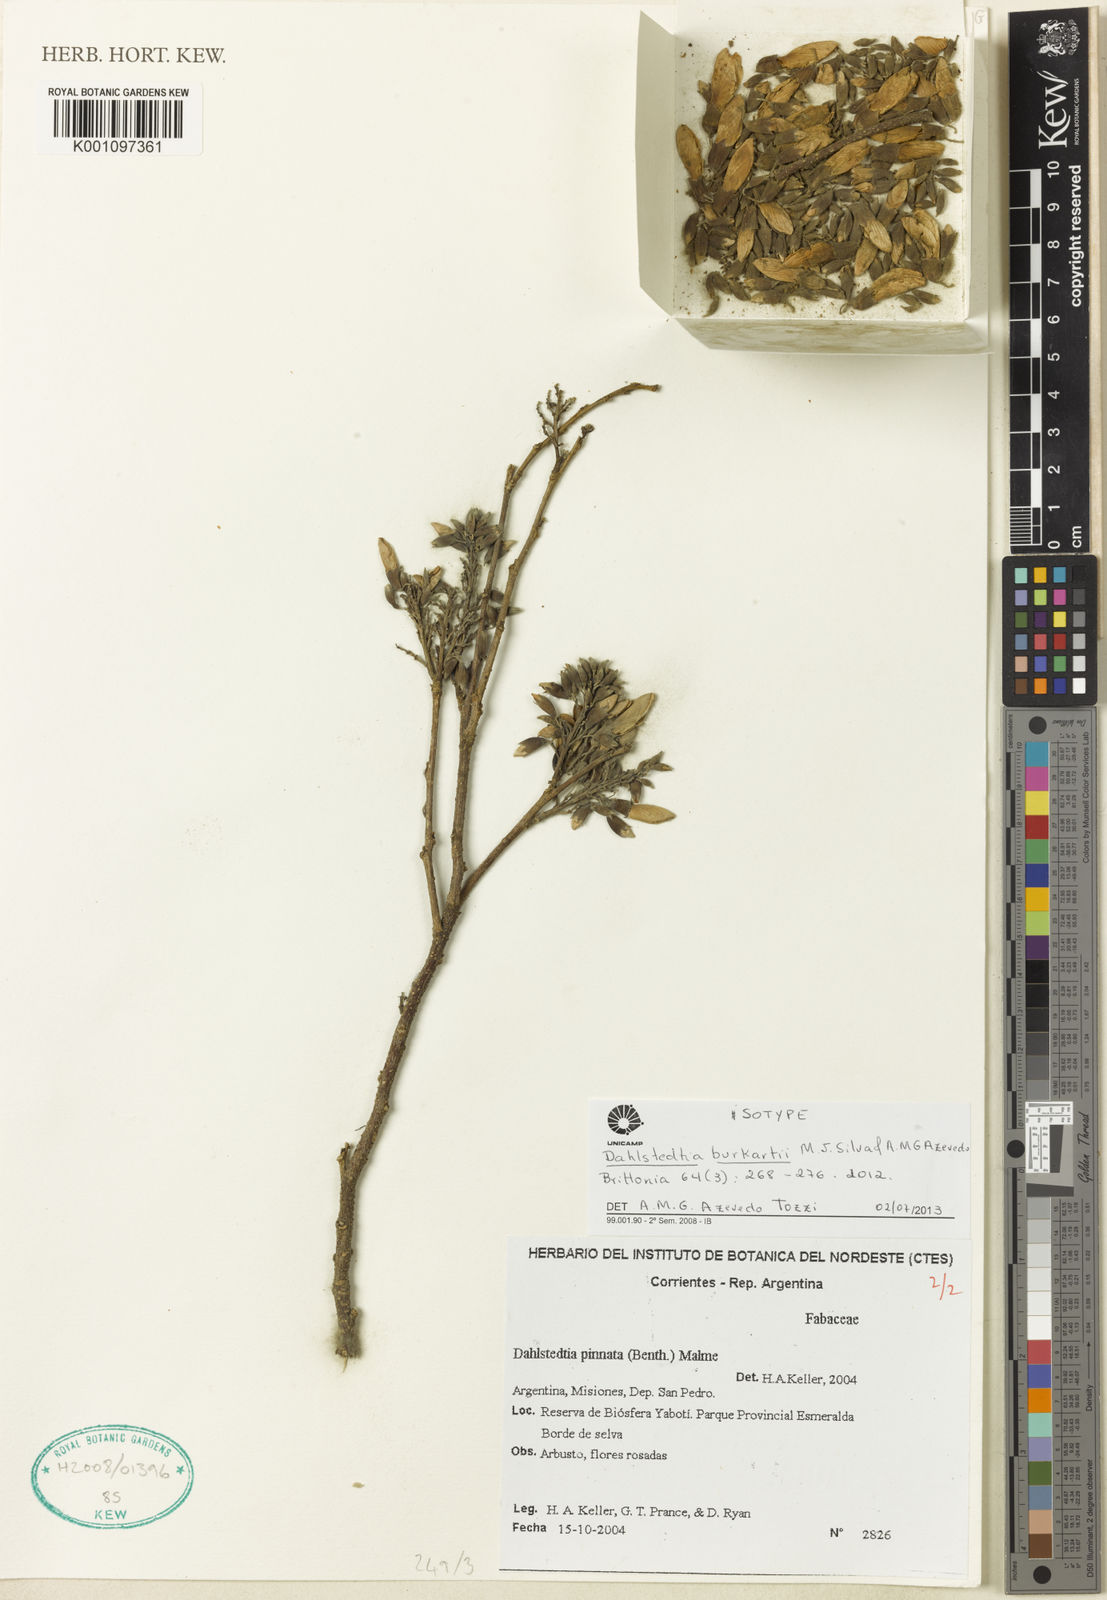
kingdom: Plantae
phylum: Tracheophyta
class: Magnoliopsida
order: Fabales
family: Fabaceae
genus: Dahlstedtia
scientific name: Dahlstedtia burkartii
